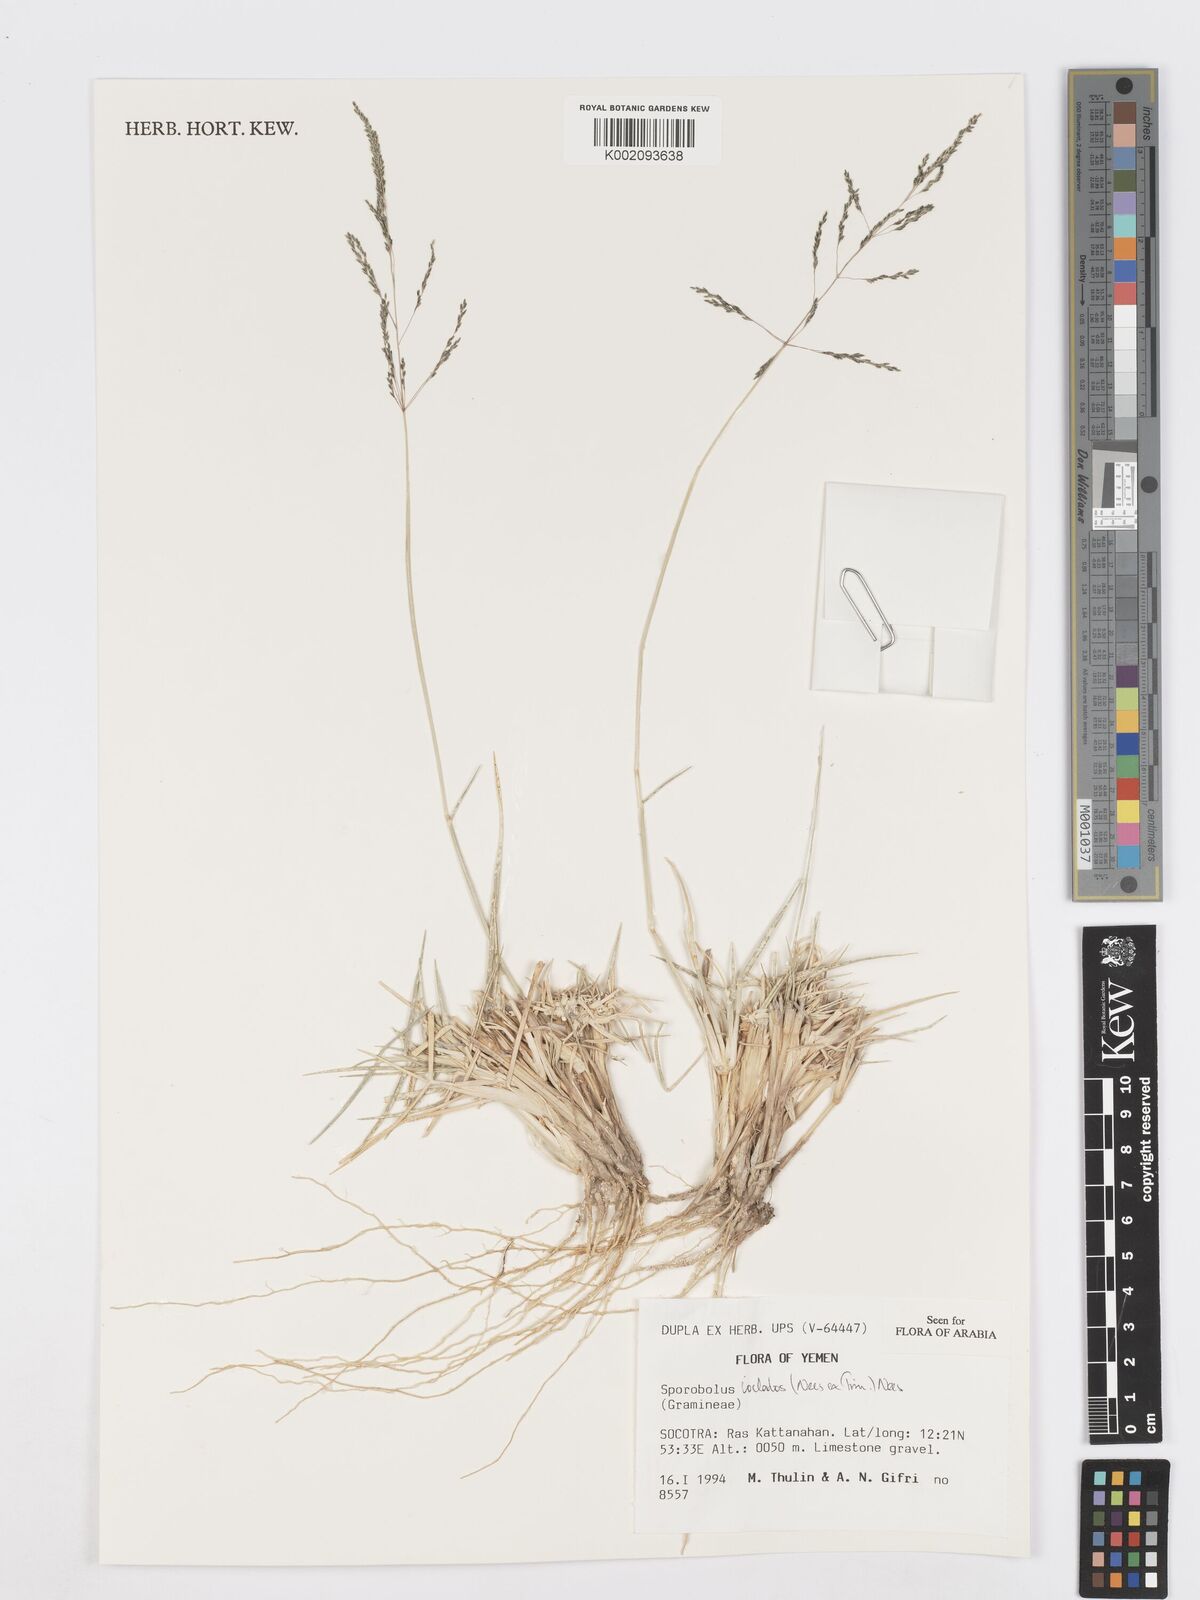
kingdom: Plantae
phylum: Tracheophyta
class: Liliopsida
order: Poales
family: Poaceae
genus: Sporobolus
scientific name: Sporobolus ioclados
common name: Pan dropseed
